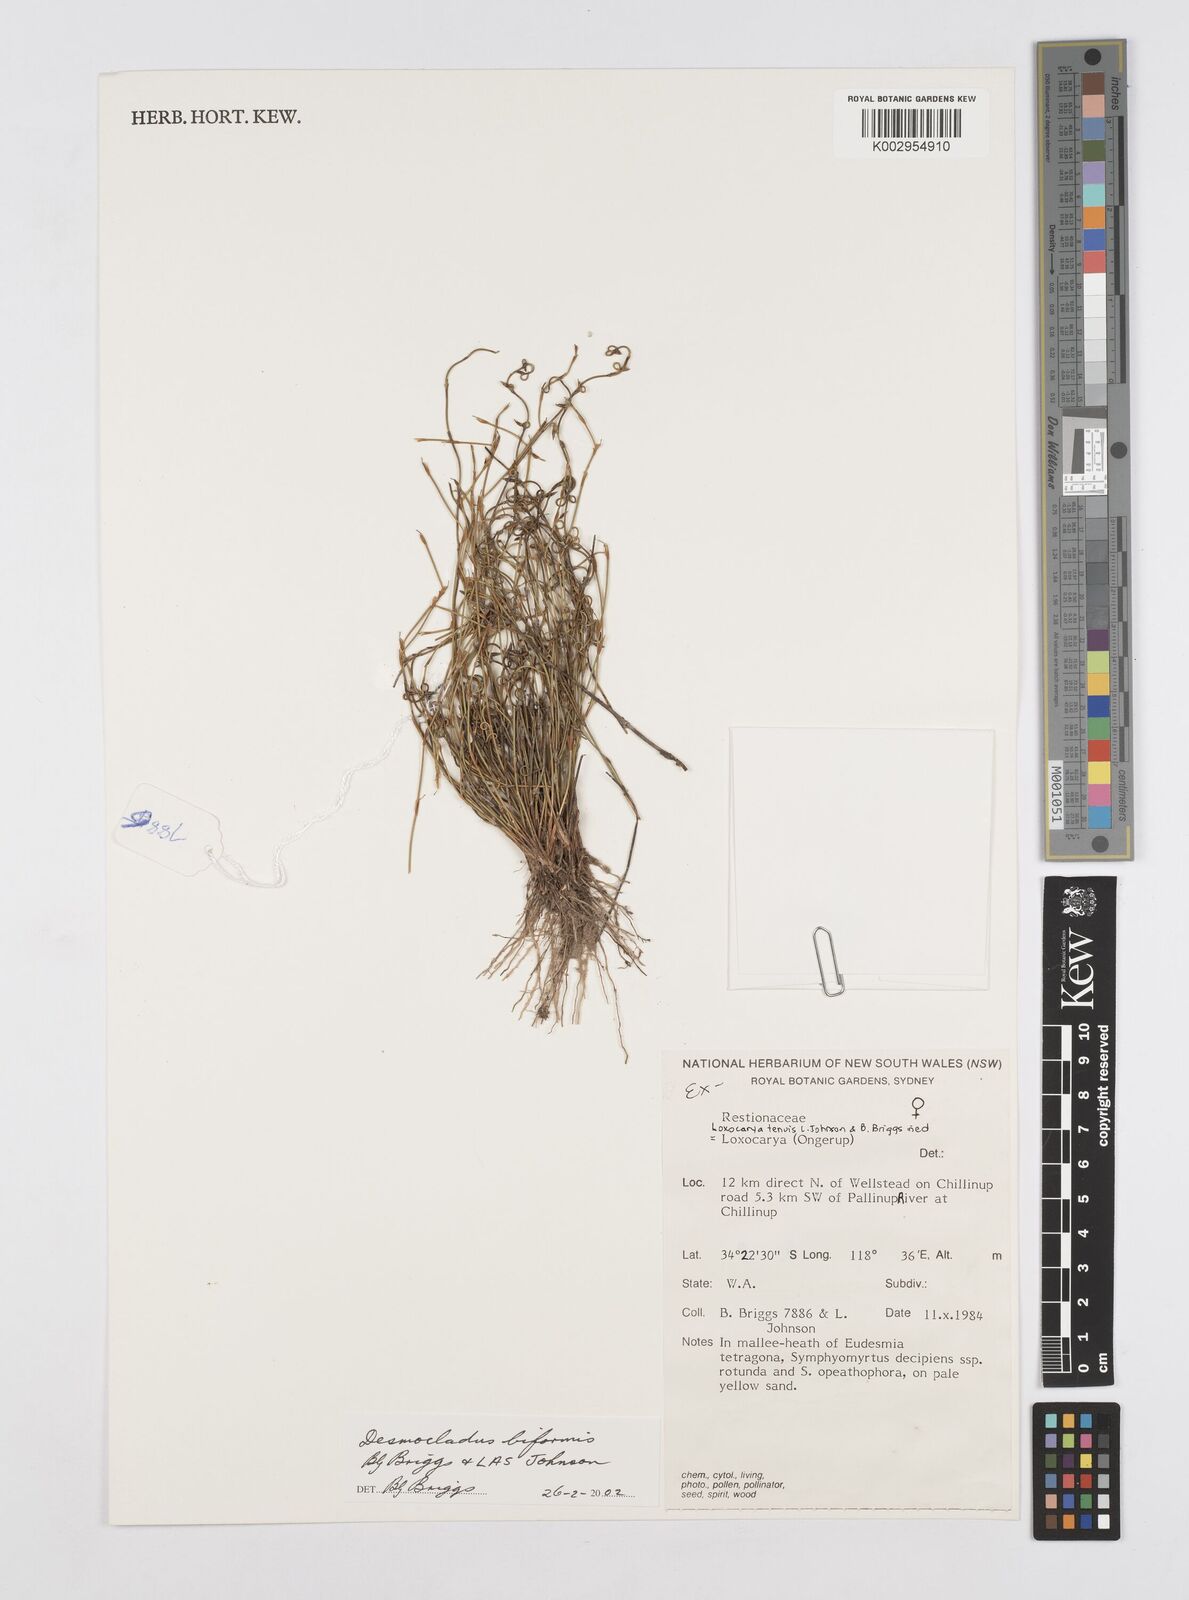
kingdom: Plantae
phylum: Tracheophyta
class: Liliopsida
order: Poales
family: Restionaceae
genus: Desmocladus
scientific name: Desmocladus biformis
